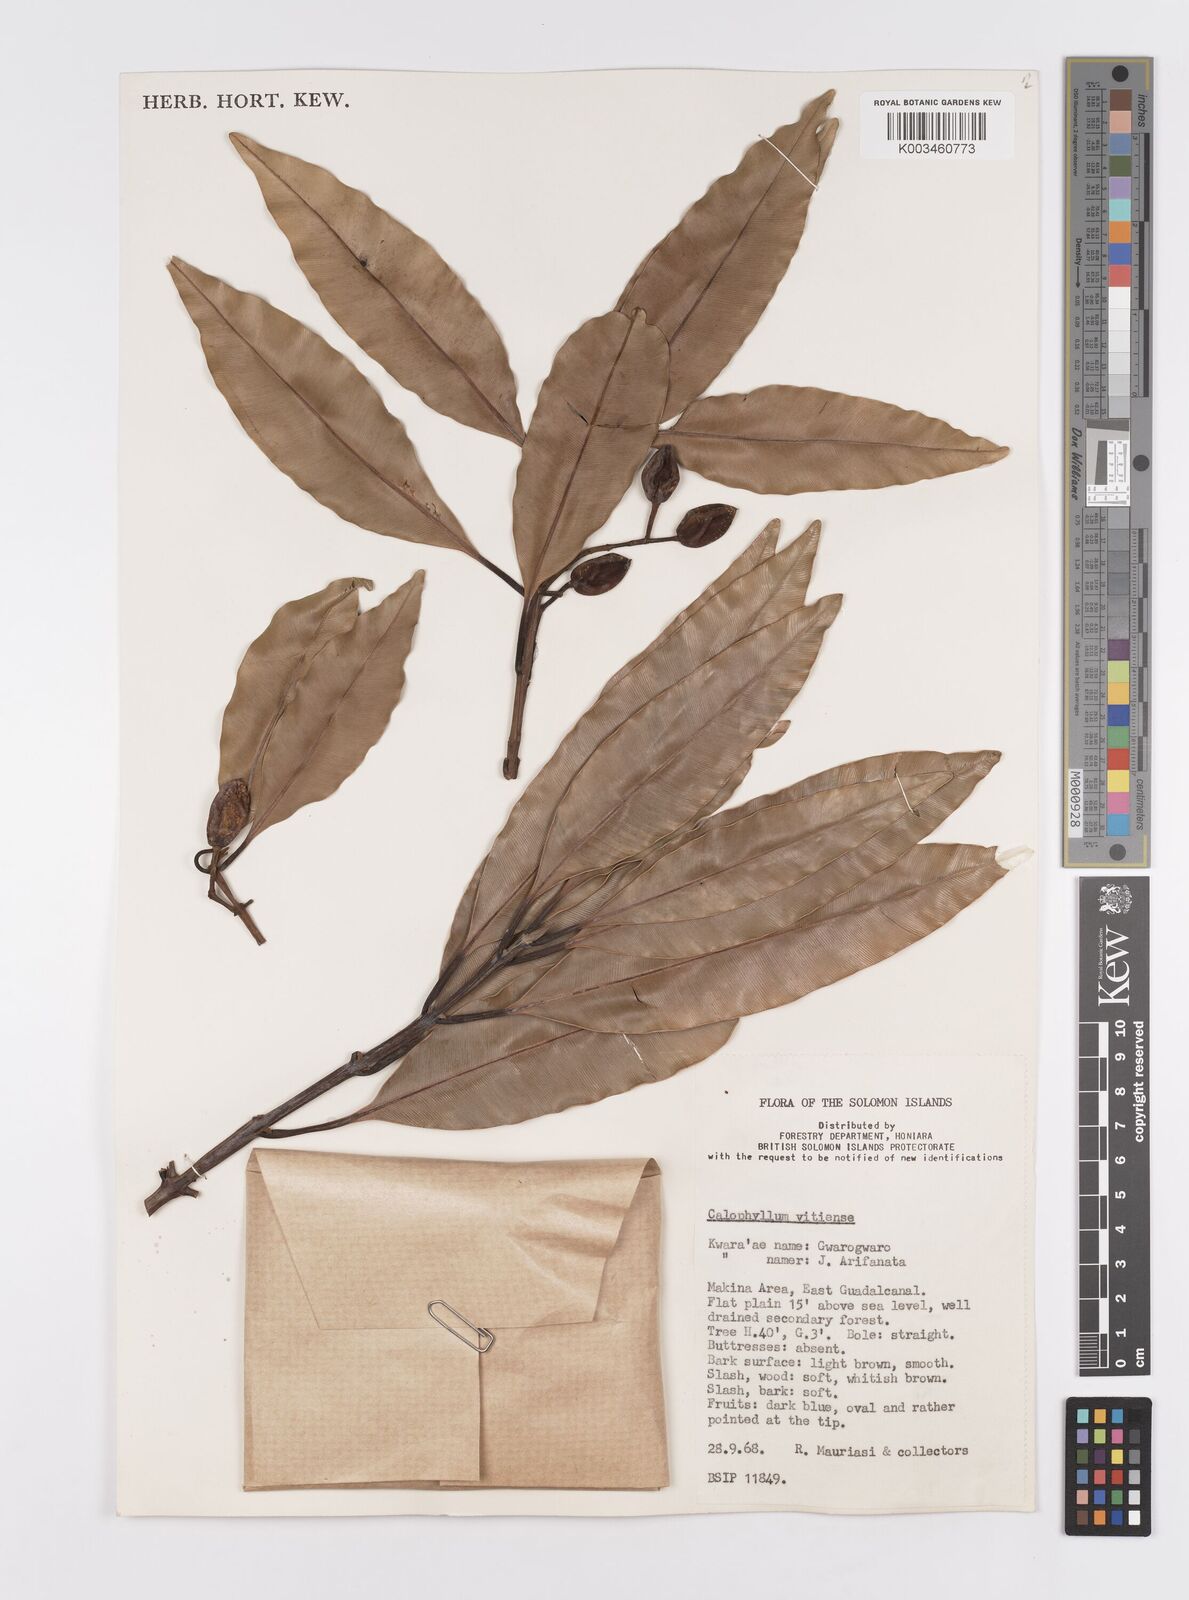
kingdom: Plantae
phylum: Tracheophyta
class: Magnoliopsida
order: Malpighiales
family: Calophyllaceae
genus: Calophyllum
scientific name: Calophyllum vitiense
